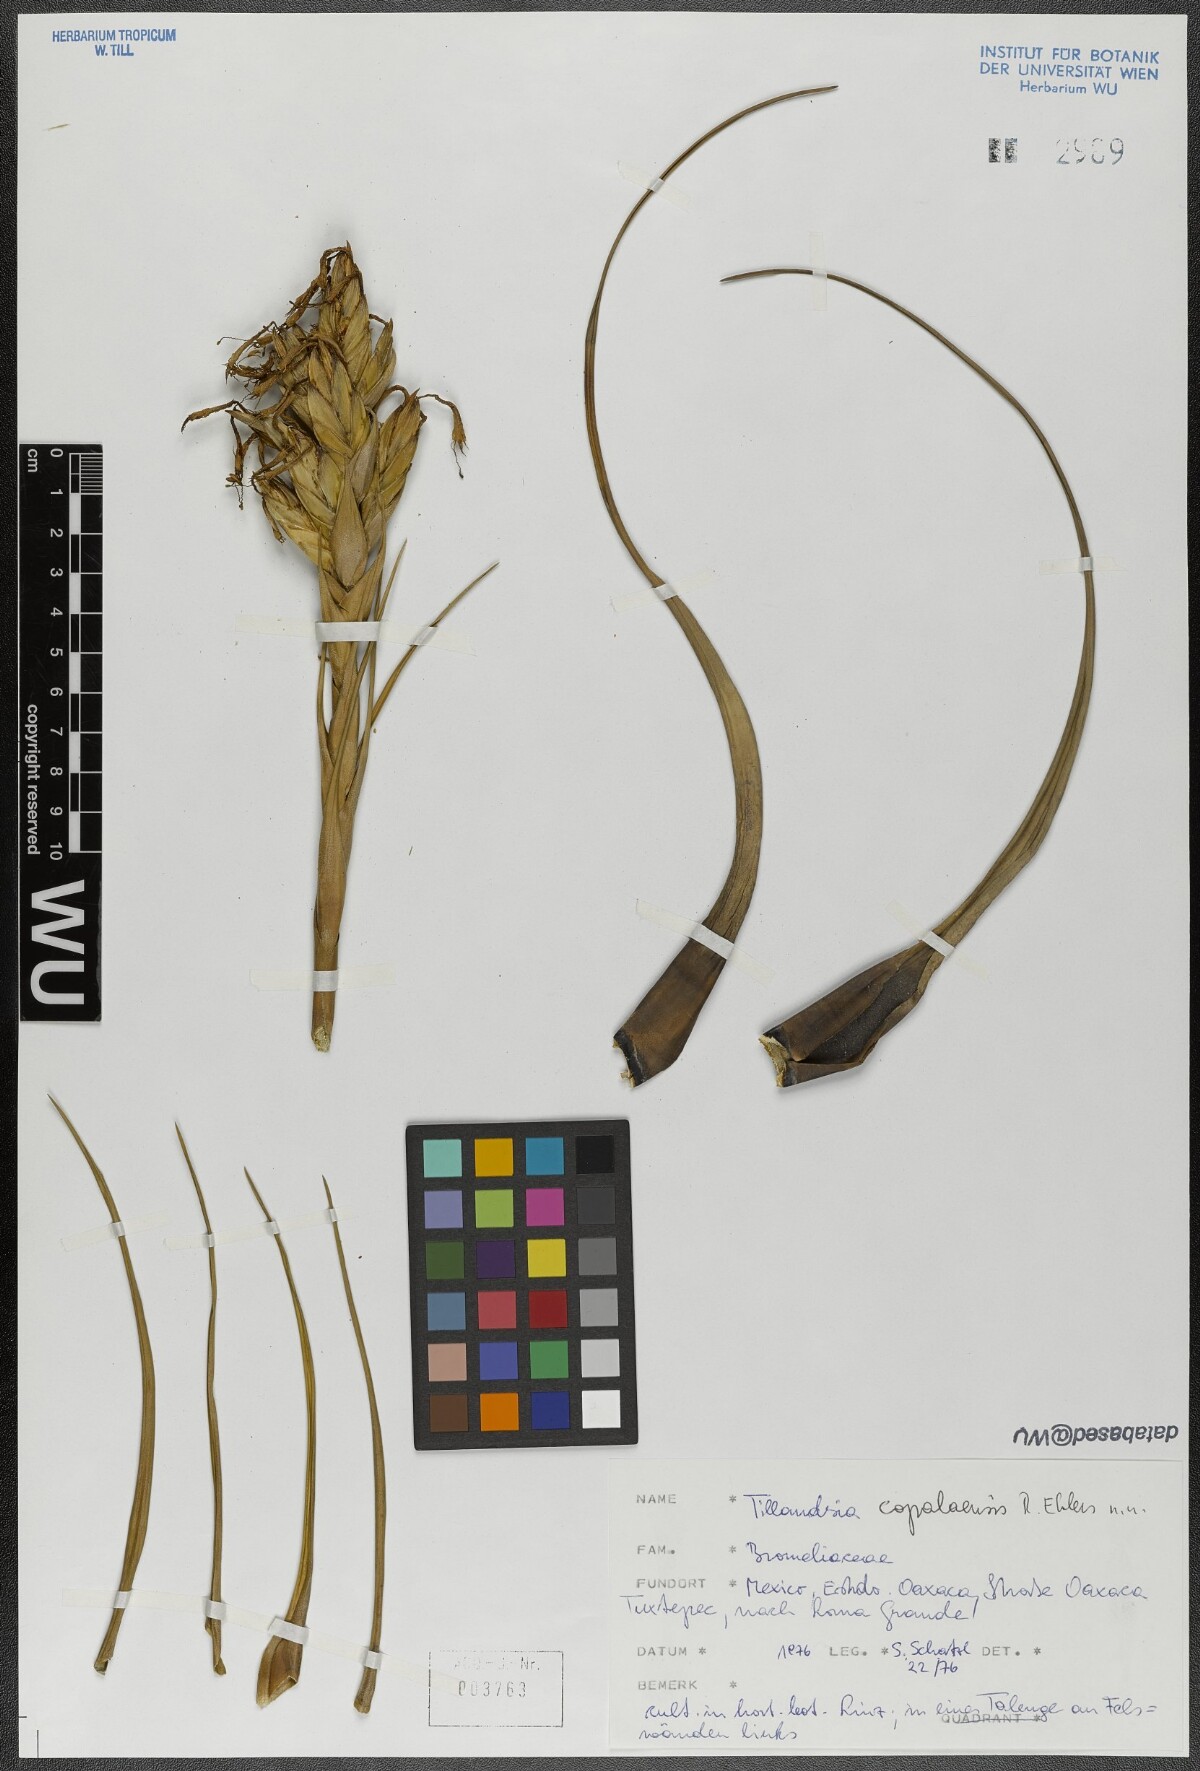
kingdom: Plantae
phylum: Tracheophyta
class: Liliopsida
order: Poales
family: Bromeliaceae
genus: Tillandsia
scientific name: Tillandsia copalaensis
